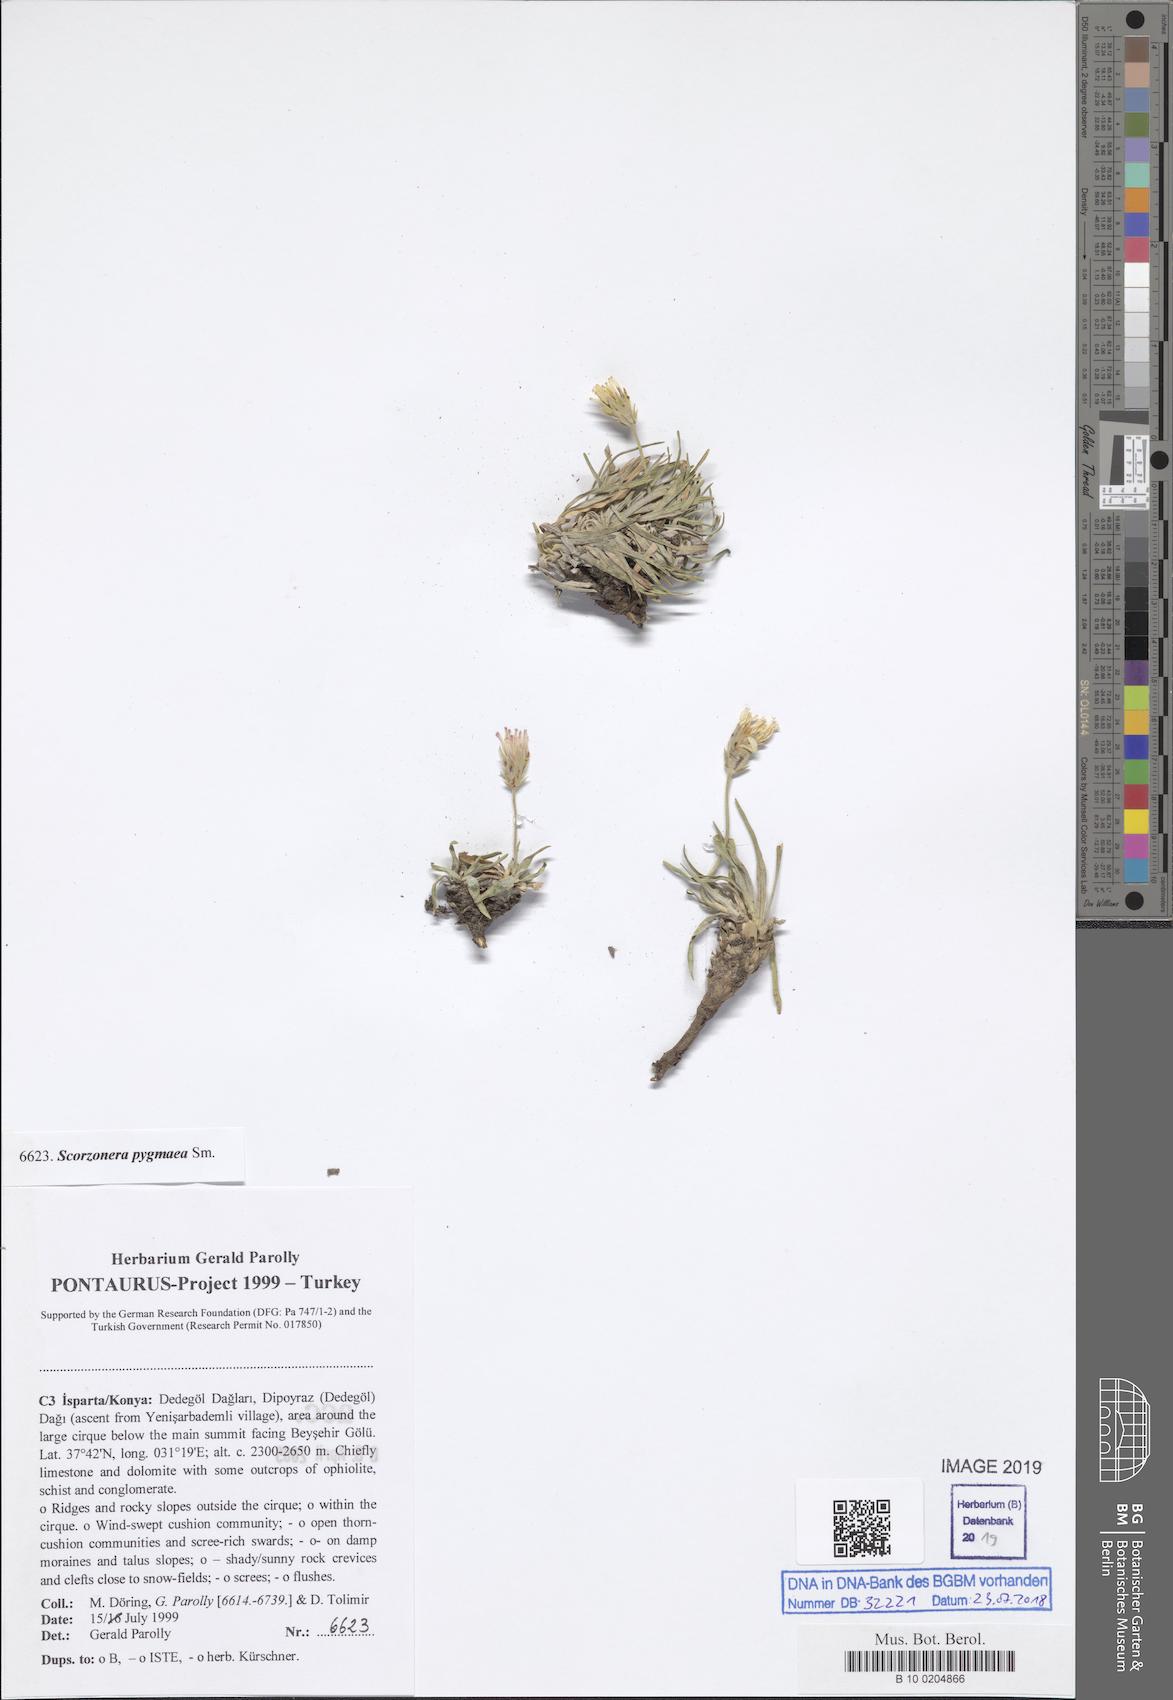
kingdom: Plantae
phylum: Tracheophyta
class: Magnoliopsida
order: Asterales
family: Asteraceae
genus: Goekyighitia
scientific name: Goekyighitia pygmaea
